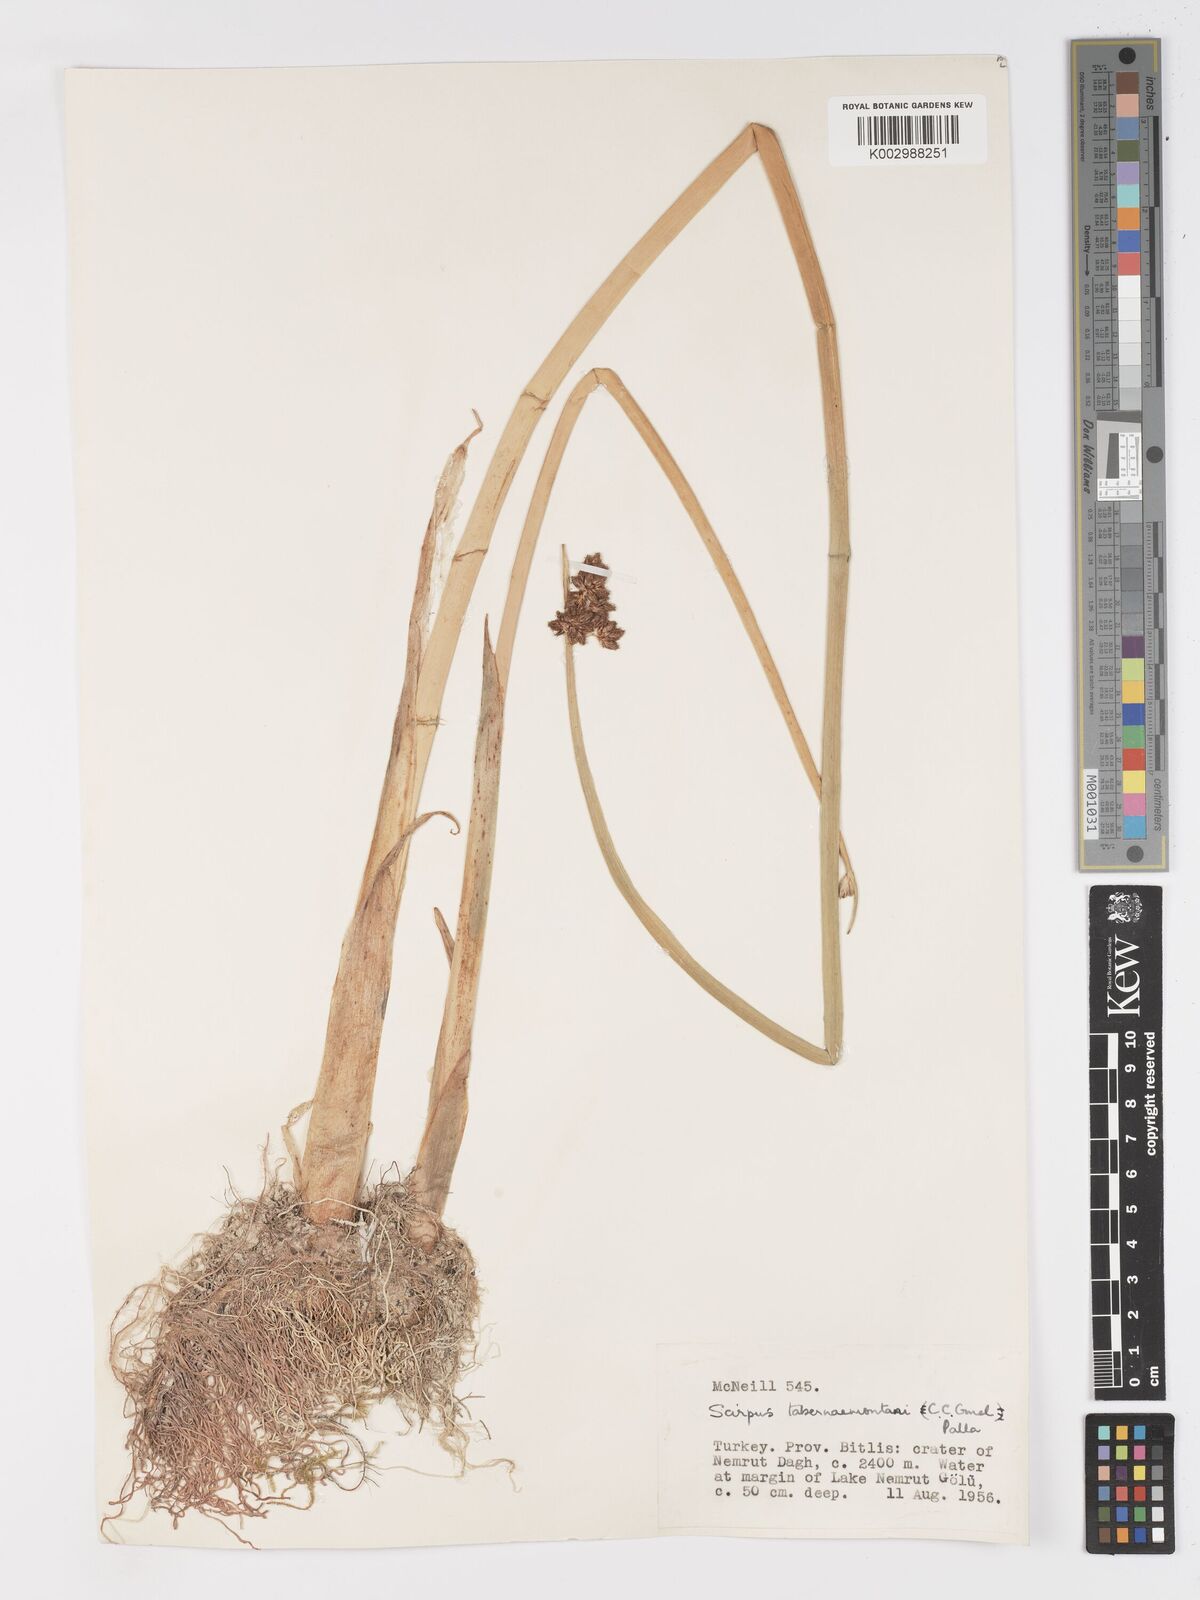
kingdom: Plantae
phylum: Tracheophyta
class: Liliopsida
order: Poales
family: Cyperaceae
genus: Schoenoplectus
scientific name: Schoenoplectus tabernaemontani
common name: Grey club-rush
